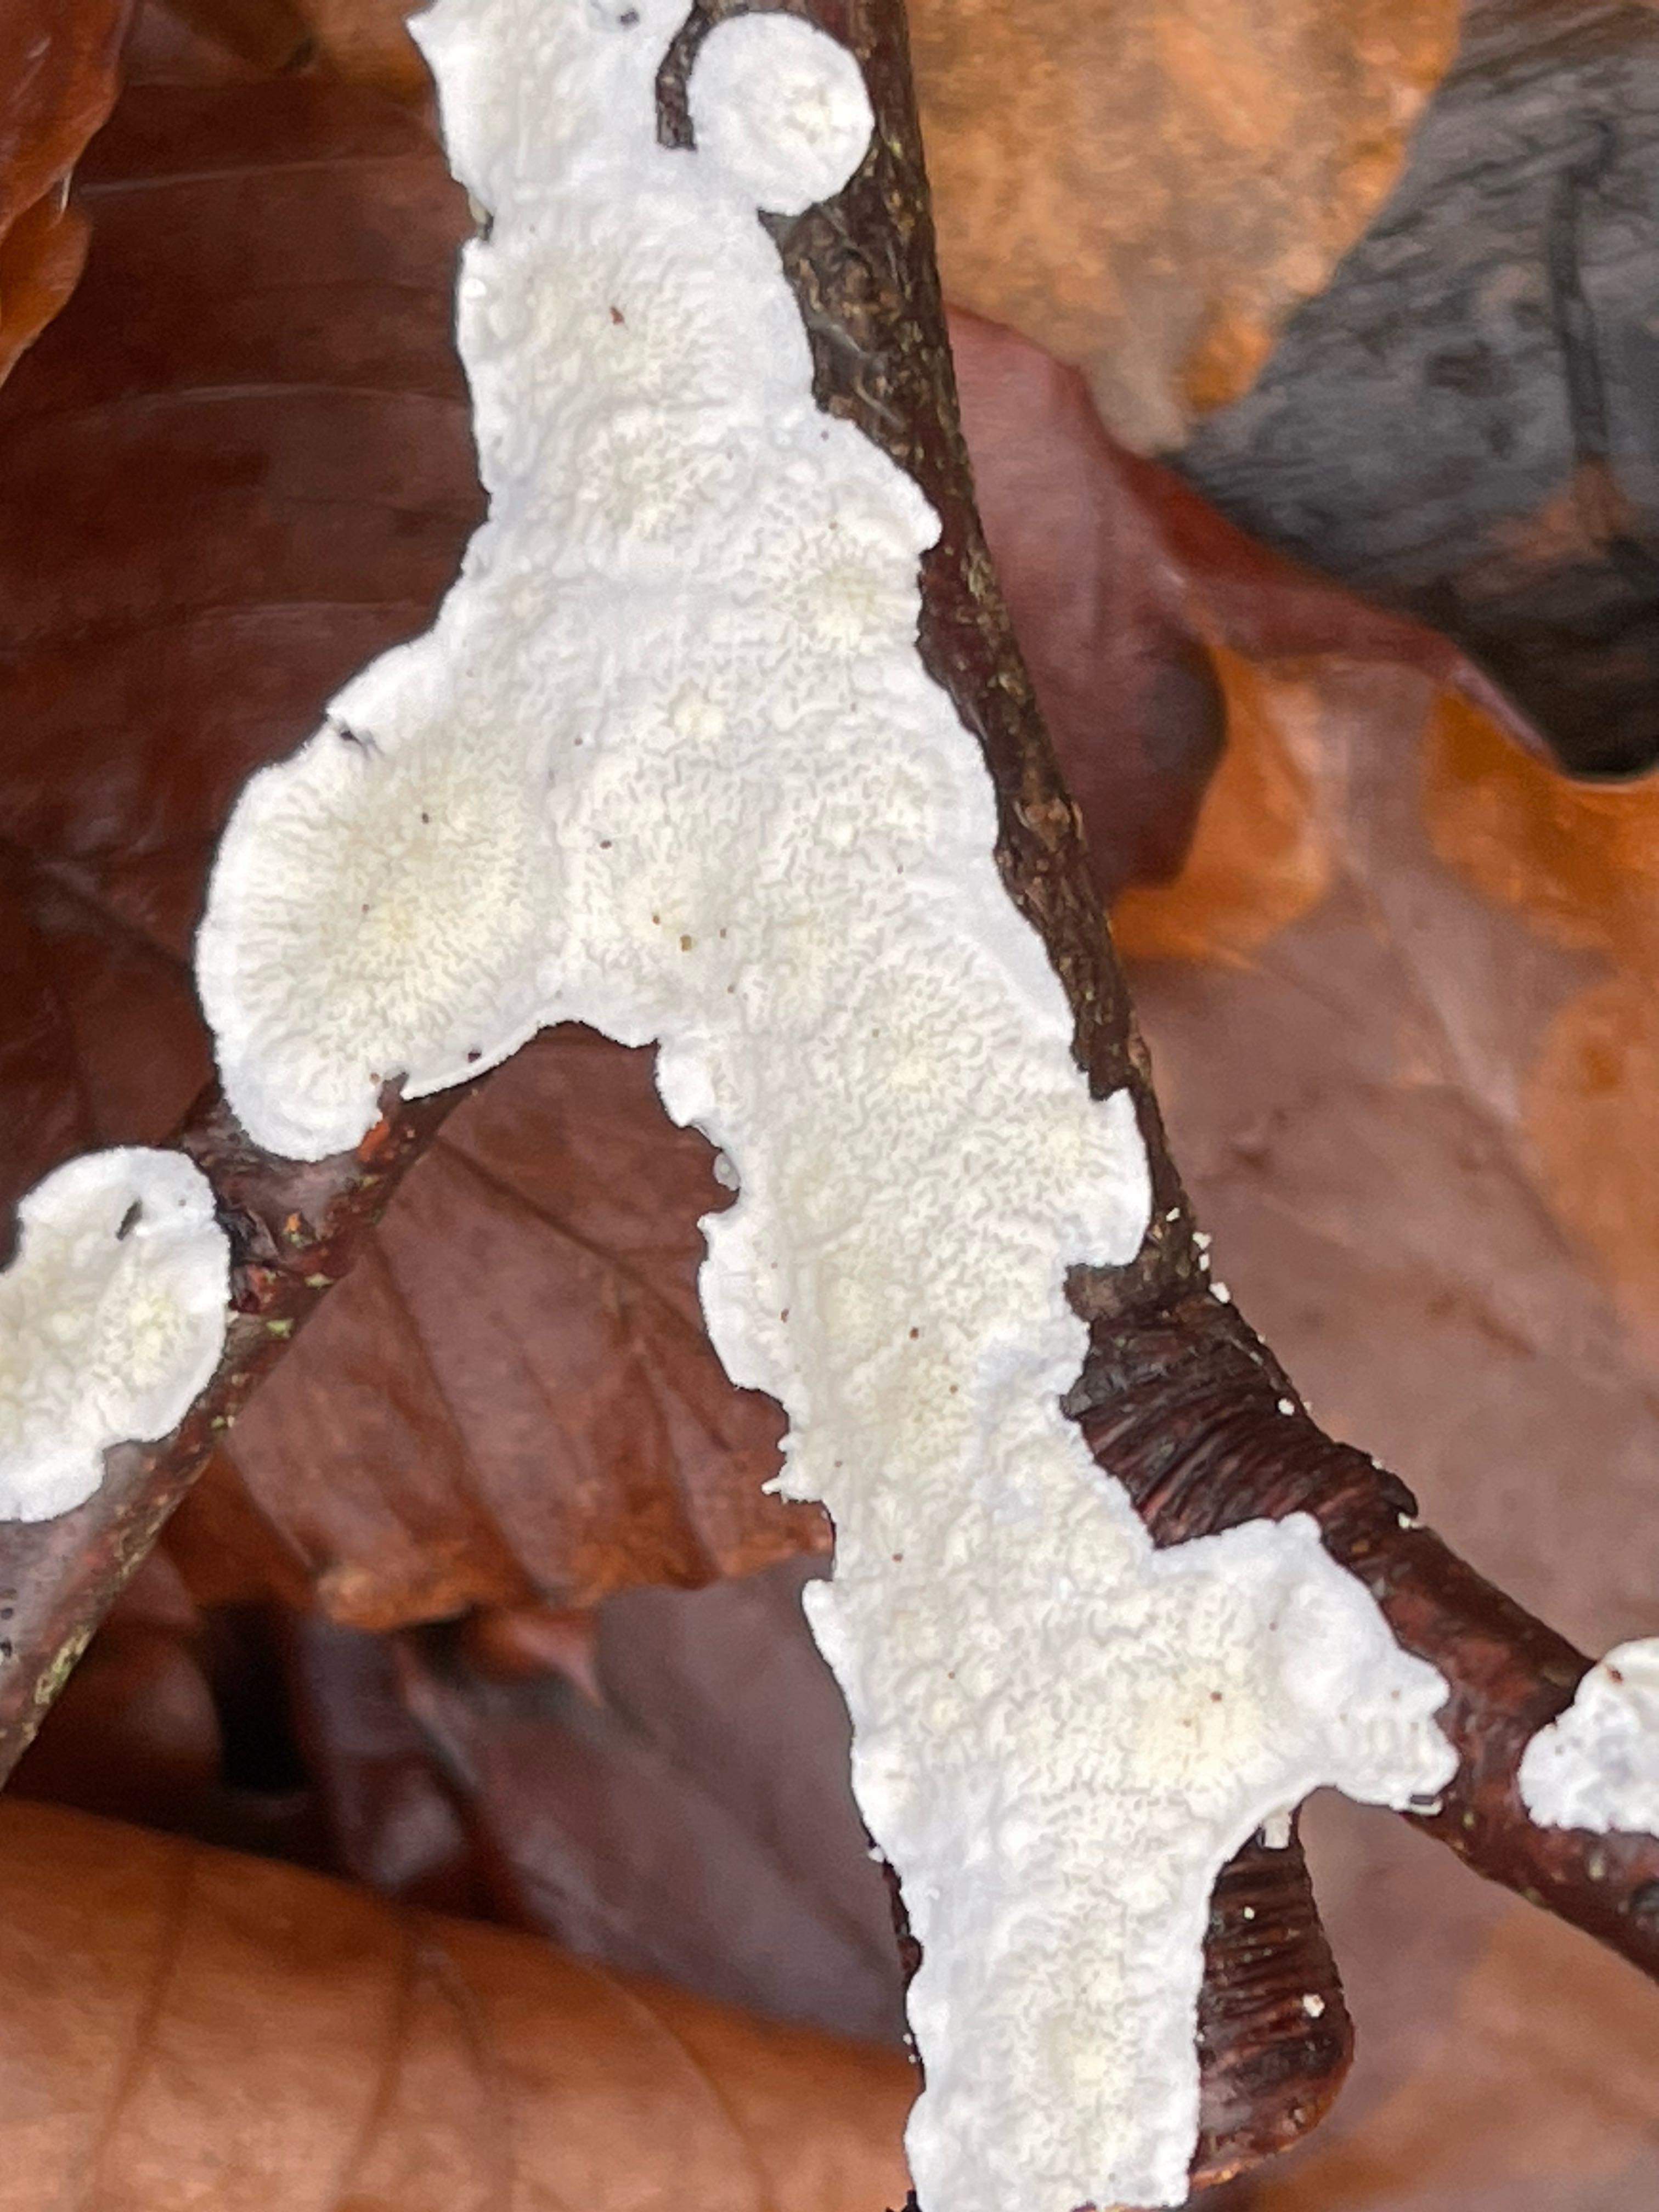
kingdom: Fungi
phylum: Basidiomycota
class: Agaricomycetes
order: Polyporales
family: Irpicaceae
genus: Byssomerulius
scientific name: Byssomerulius corium
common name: læder-åresvamp
